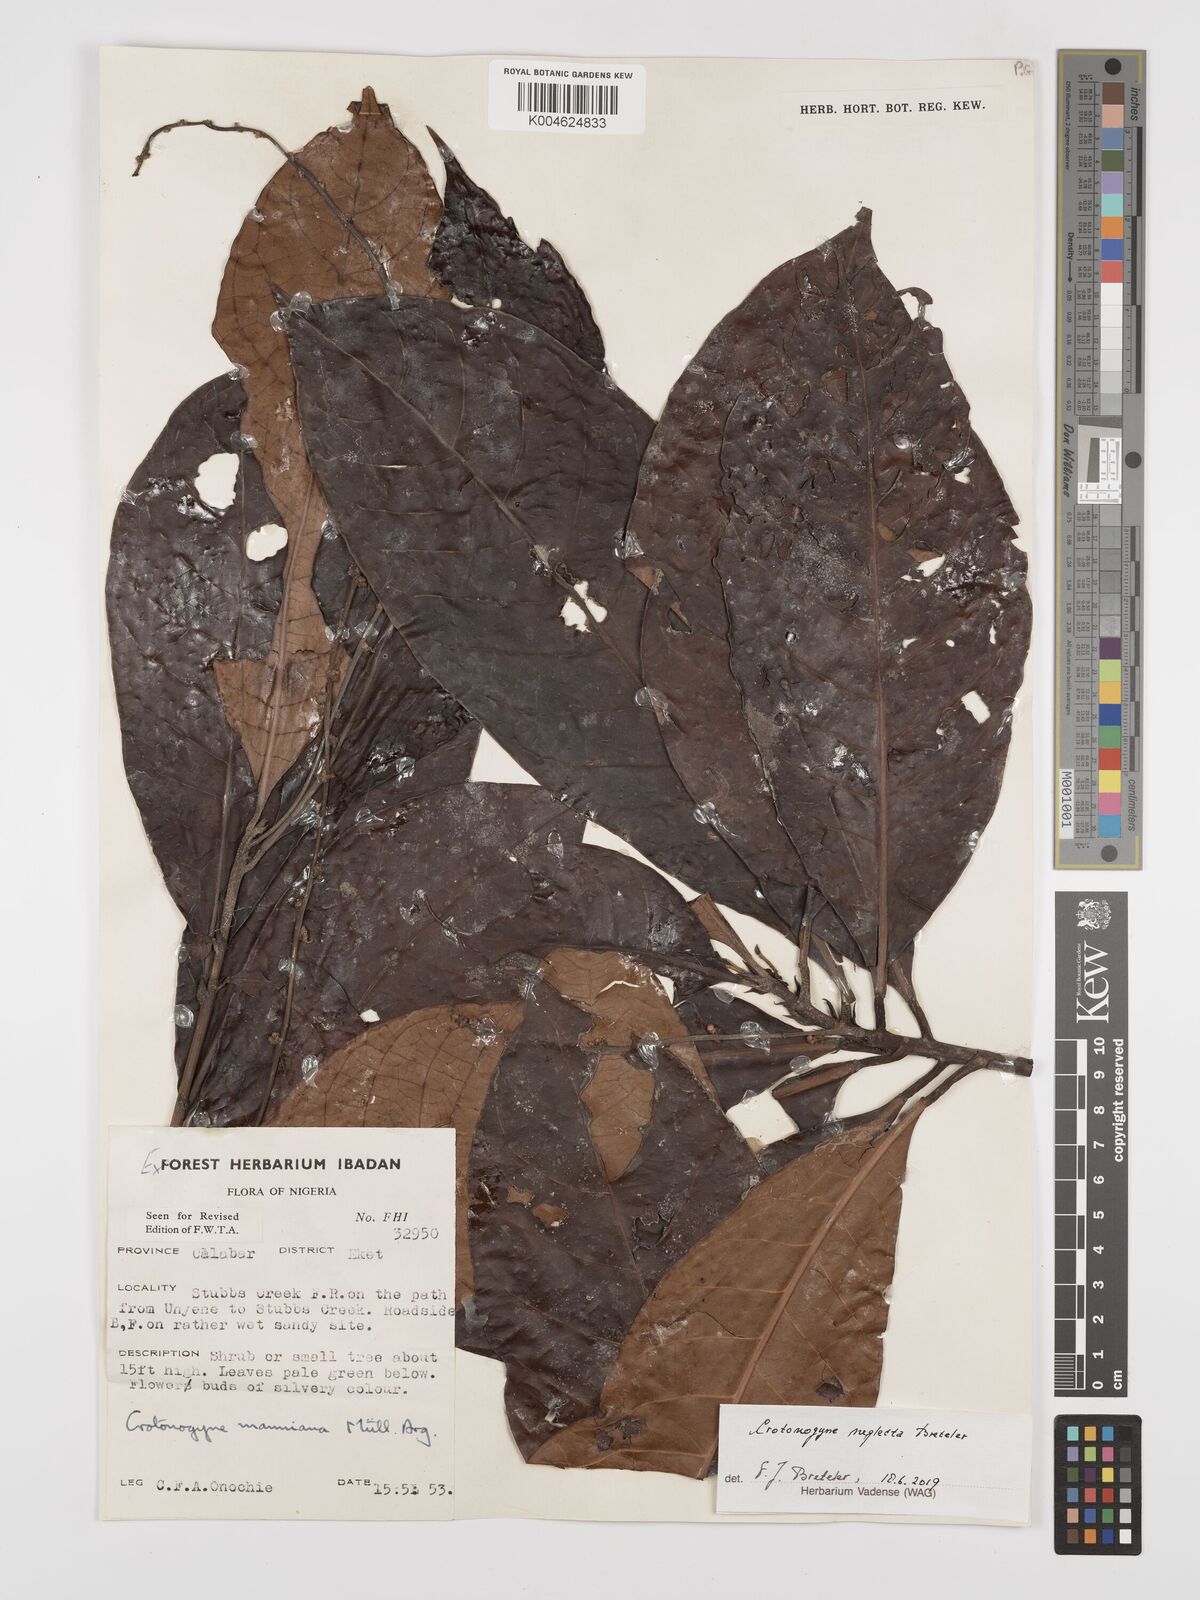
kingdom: Plantae
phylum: Tracheophyta
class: Magnoliopsida
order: Malpighiales
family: Euphorbiaceae
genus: Crotonogyne
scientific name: Crotonogyne neglecta
